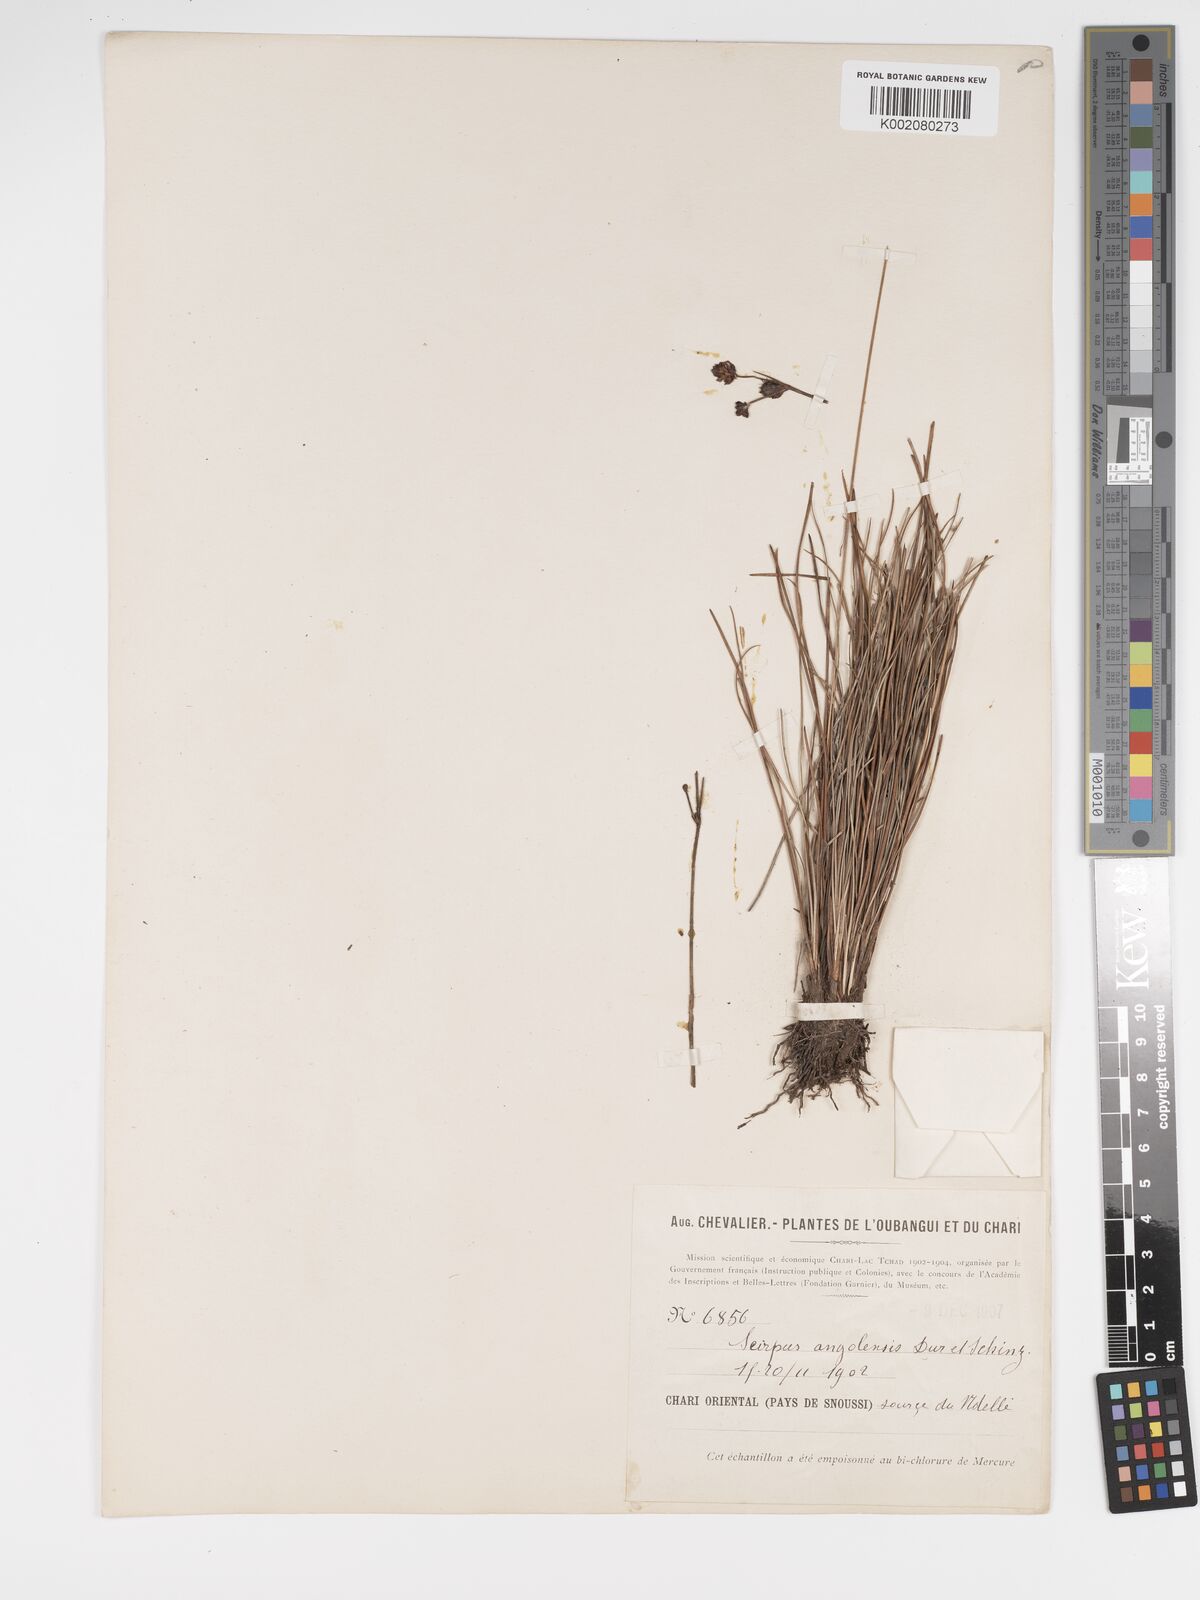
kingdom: Plantae
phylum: Tracheophyta
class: Liliopsida
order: Poales
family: Cyperaceae
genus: Bulbostylis
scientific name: Bulbostylis briziformis
